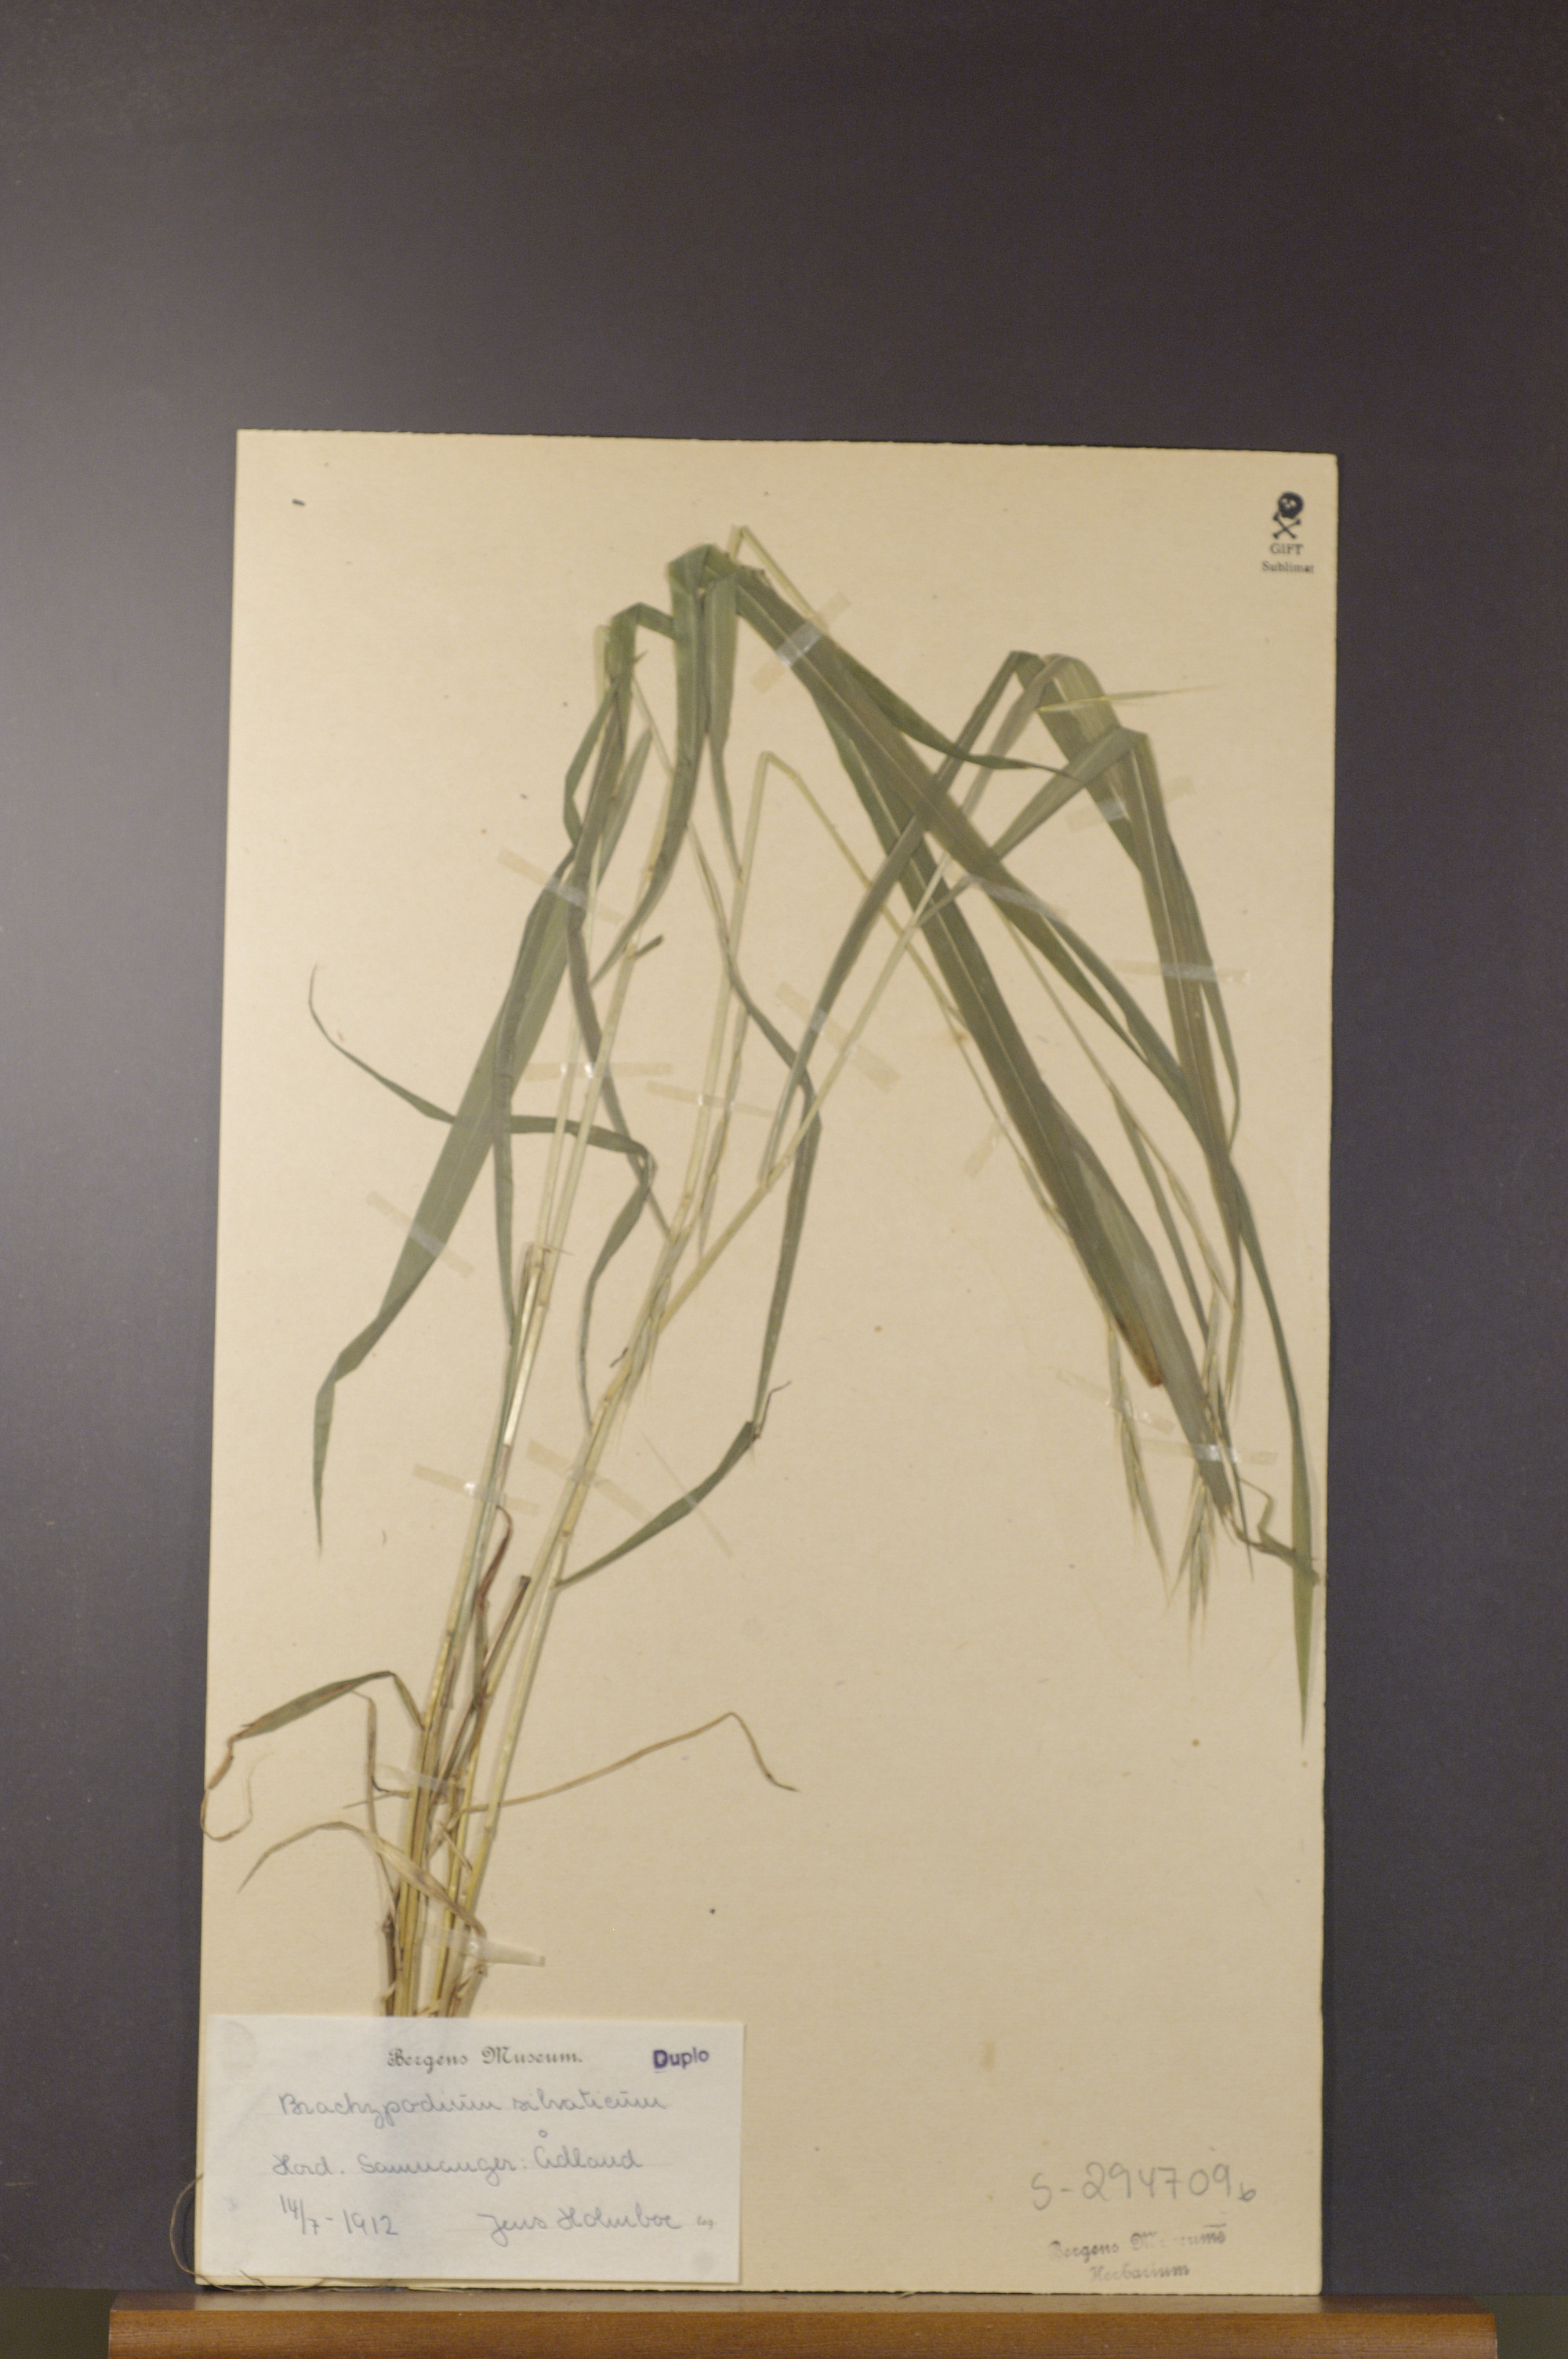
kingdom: Plantae
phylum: Tracheophyta
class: Liliopsida
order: Poales
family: Poaceae
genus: Brachypodium
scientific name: Brachypodium sylvaticum
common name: False-brome
